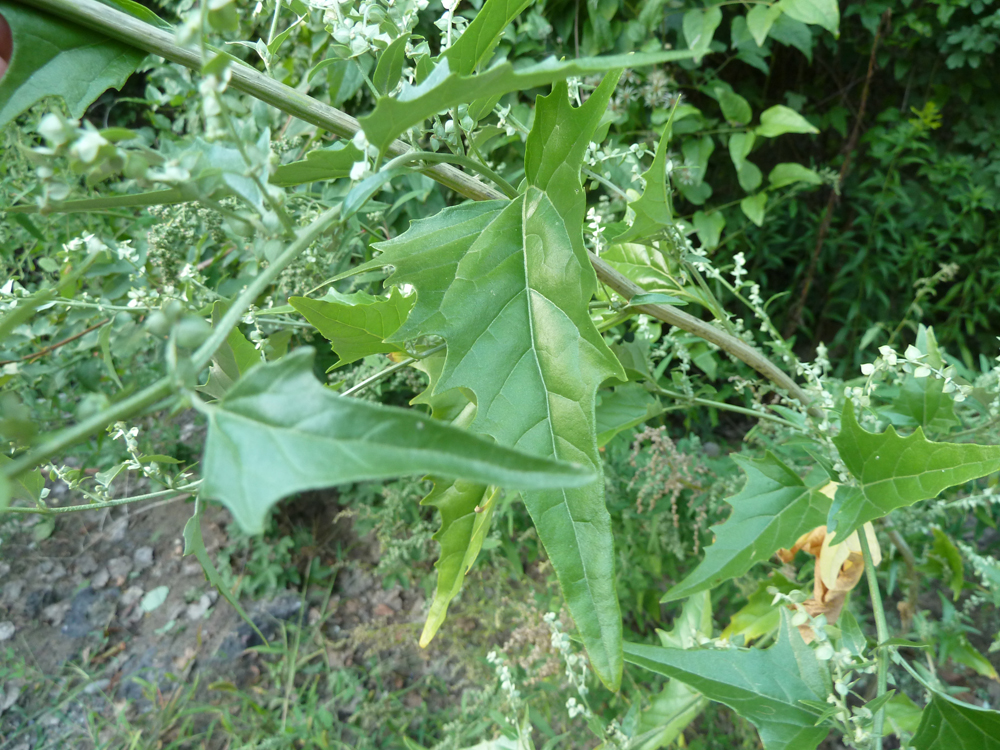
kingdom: Plantae
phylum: Tracheophyta
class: Magnoliopsida
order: Caryophyllales
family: Amaranthaceae
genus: Atriplex
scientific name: Atriplex sagittata
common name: Purple orache
